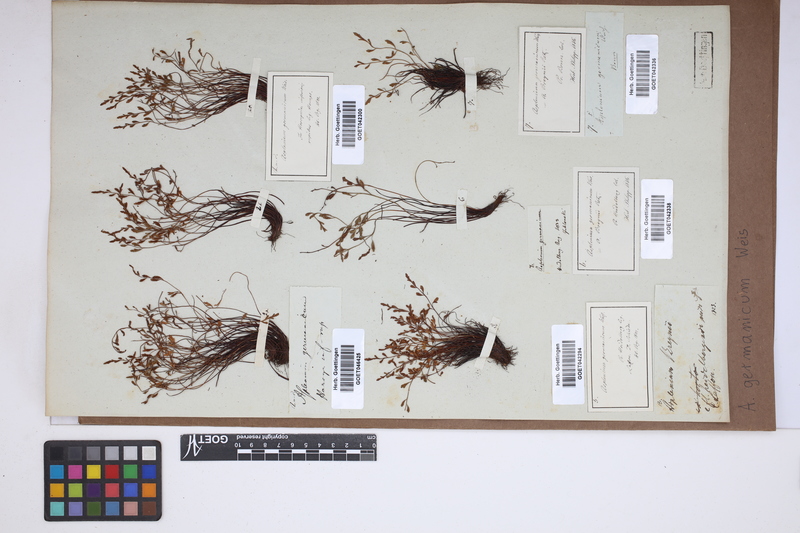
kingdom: Plantae
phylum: Tracheophyta
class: Polypodiopsida
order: Polypodiales
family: Aspleniaceae
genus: Asplenium
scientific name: Asplenium
